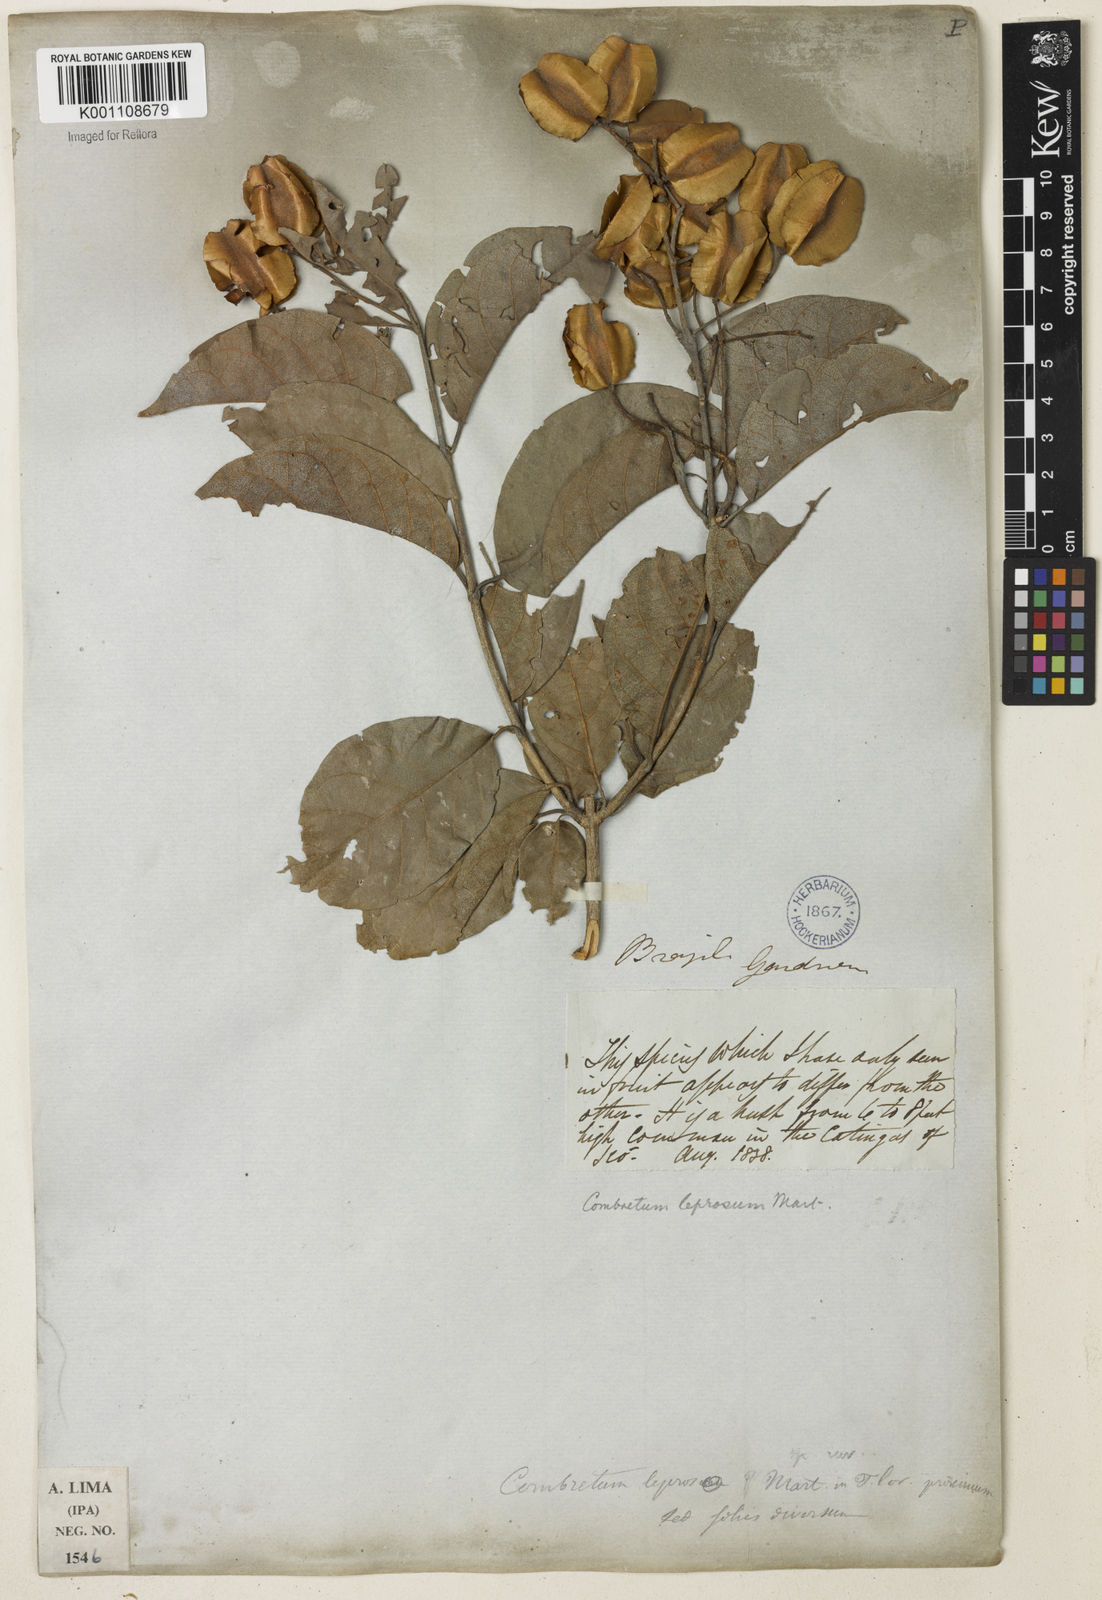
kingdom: Plantae
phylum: Tracheophyta
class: Magnoliopsida
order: Myrtales
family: Combretaceae
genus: Combretum
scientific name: Combretum leprosum
